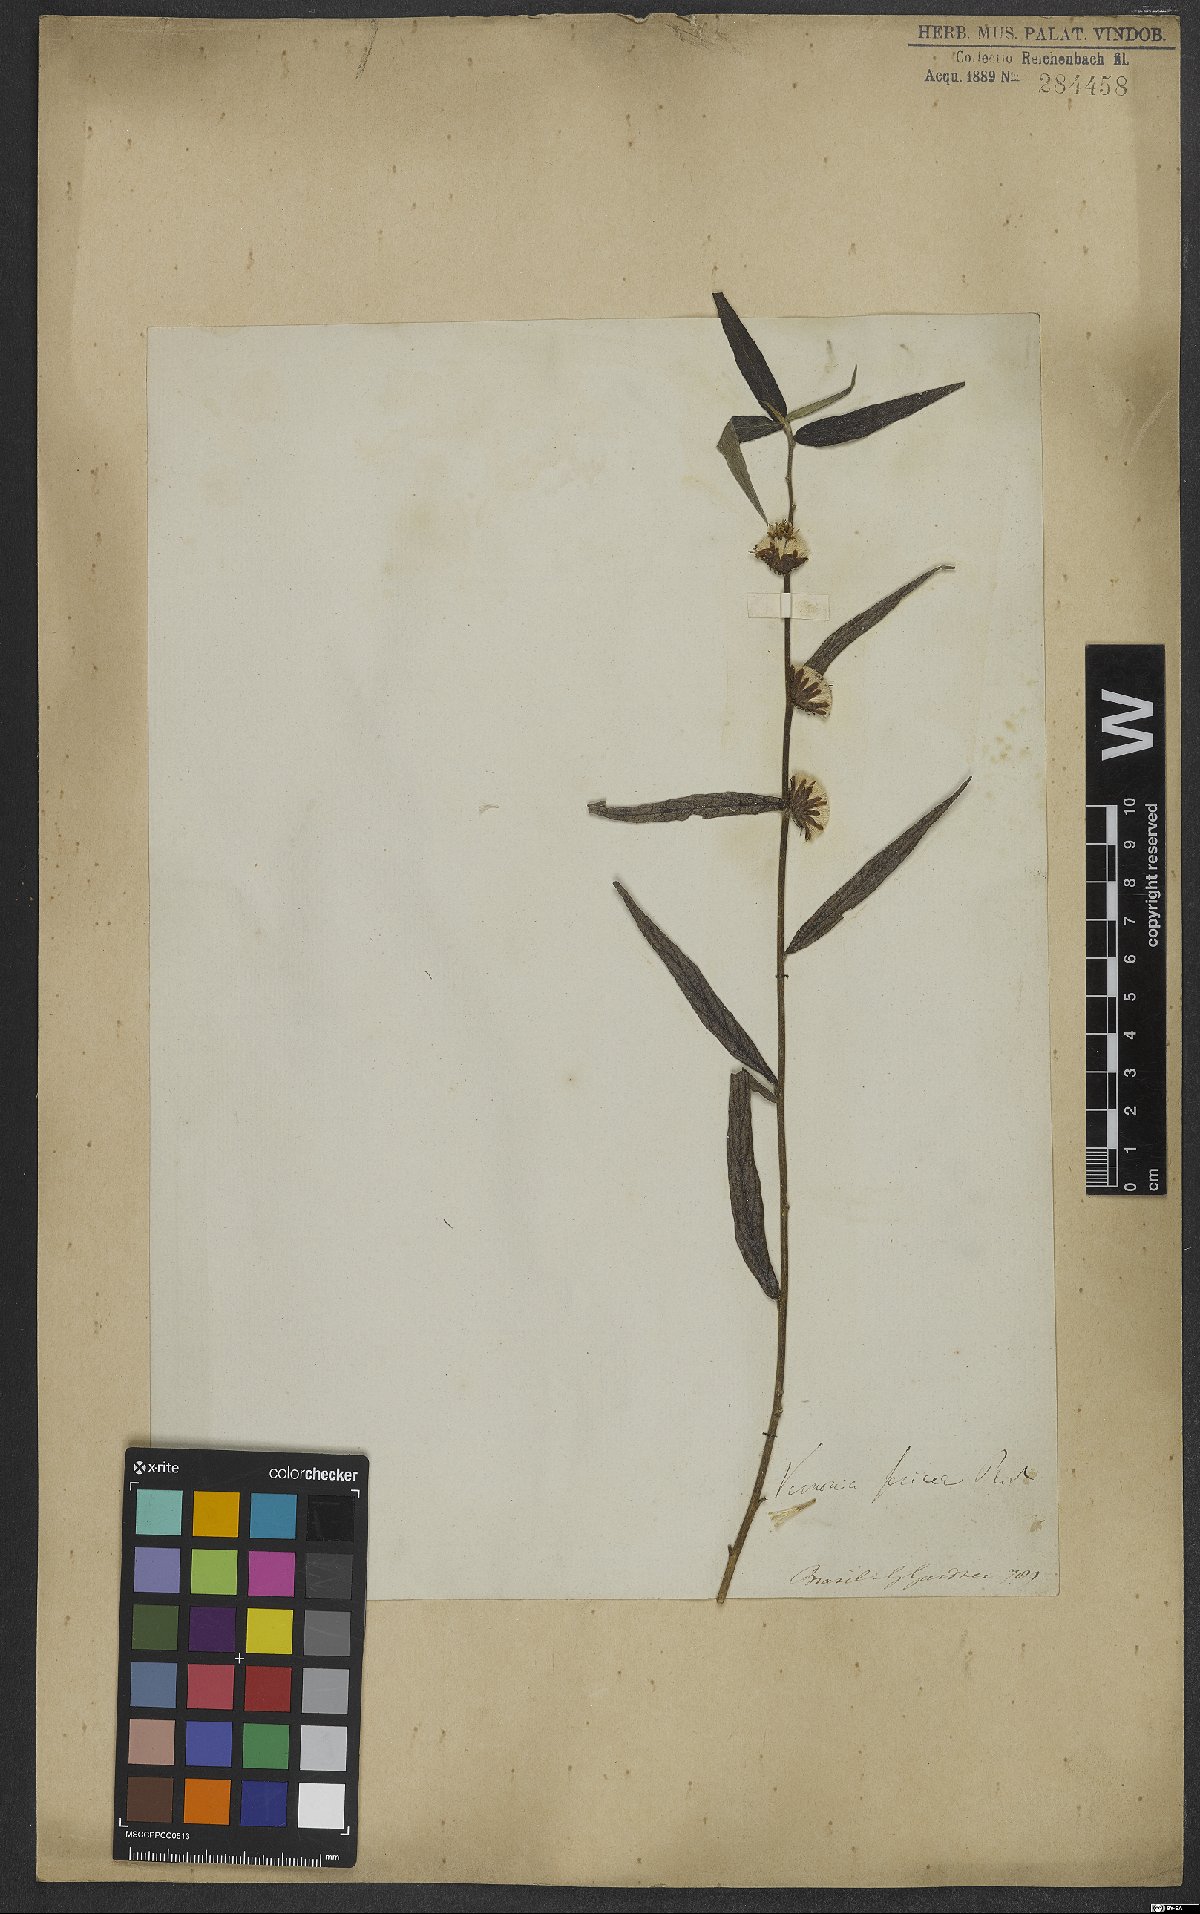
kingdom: Plantae
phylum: Tracheophyta
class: Magnoliopsida
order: Asterales
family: Asteraceae
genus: Lepidaploa
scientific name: Lepidaploa sericea
